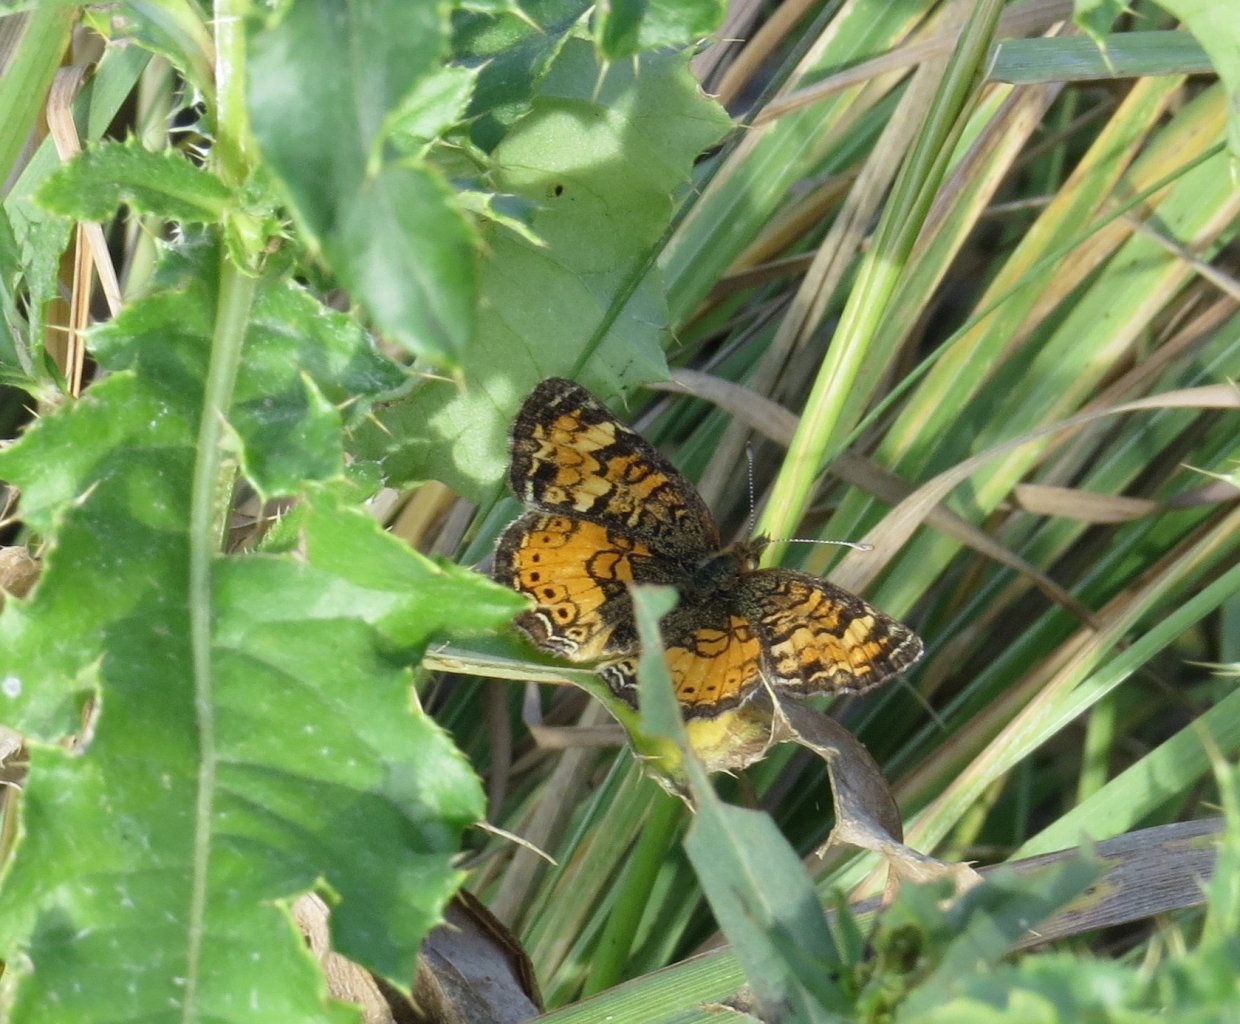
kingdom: Animalia
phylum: Arthropoda
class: Insecta
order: Lepidoptera
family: Nymphalidae
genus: Phyciodes
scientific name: Phyciodes batesii
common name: Tawny Crescent
